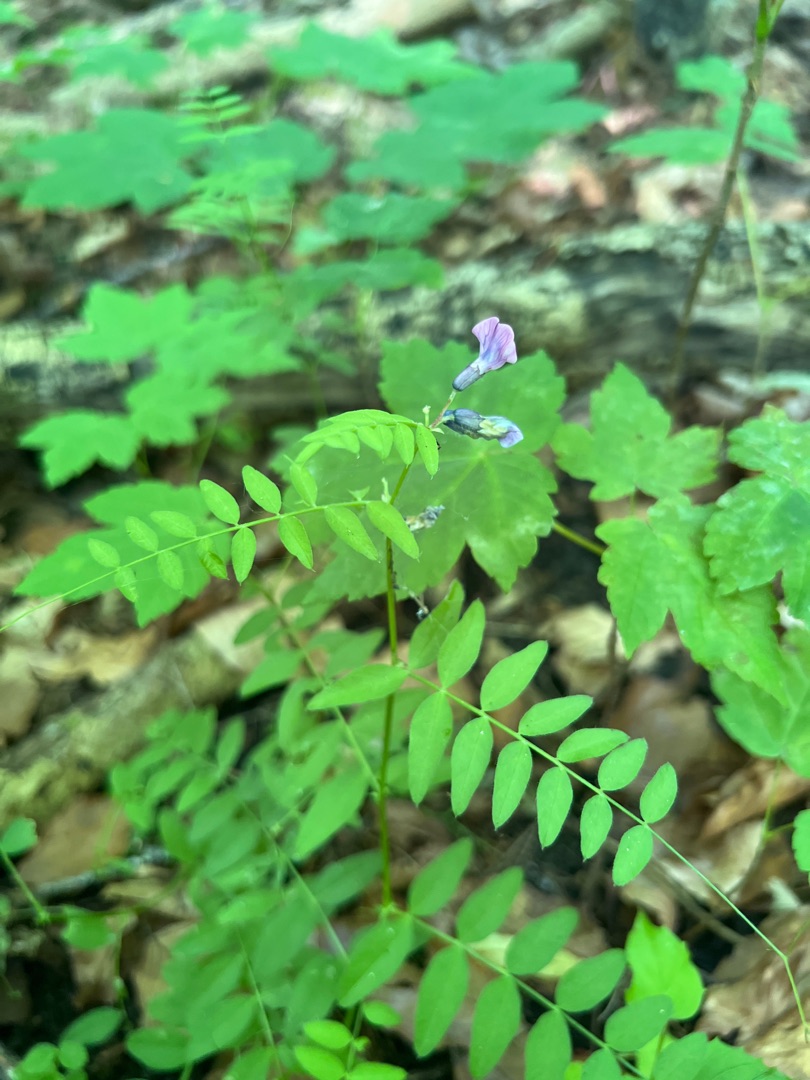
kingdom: Plantae
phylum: Tracheophyta
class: Magnoliopsida
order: Fabales
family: Fabaceae
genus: Vicia
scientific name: Vicia sepium
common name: Gærde-vikke
